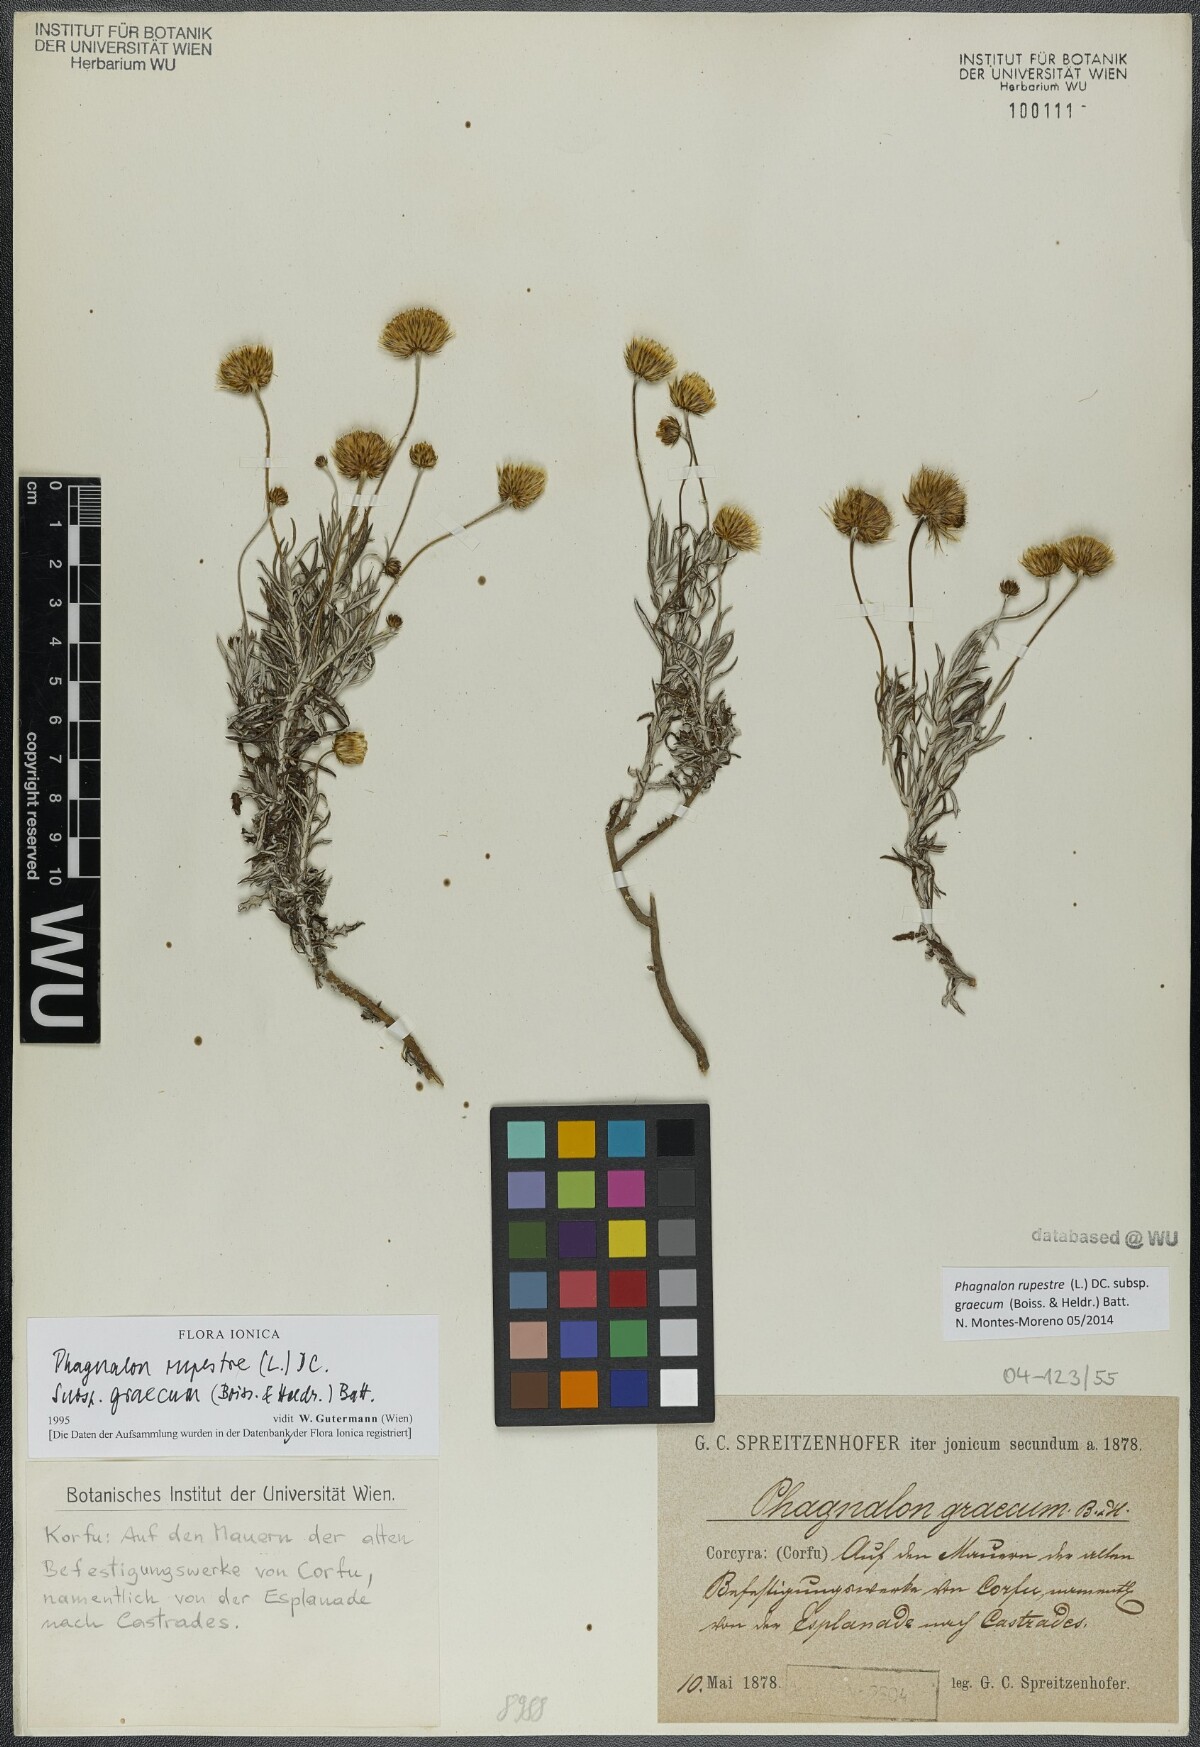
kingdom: Plantae
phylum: Tracheophyta
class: Magnoliopsida
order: Asterales
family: Asteraceae
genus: Phagnalon
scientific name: Phagnalon graecum
